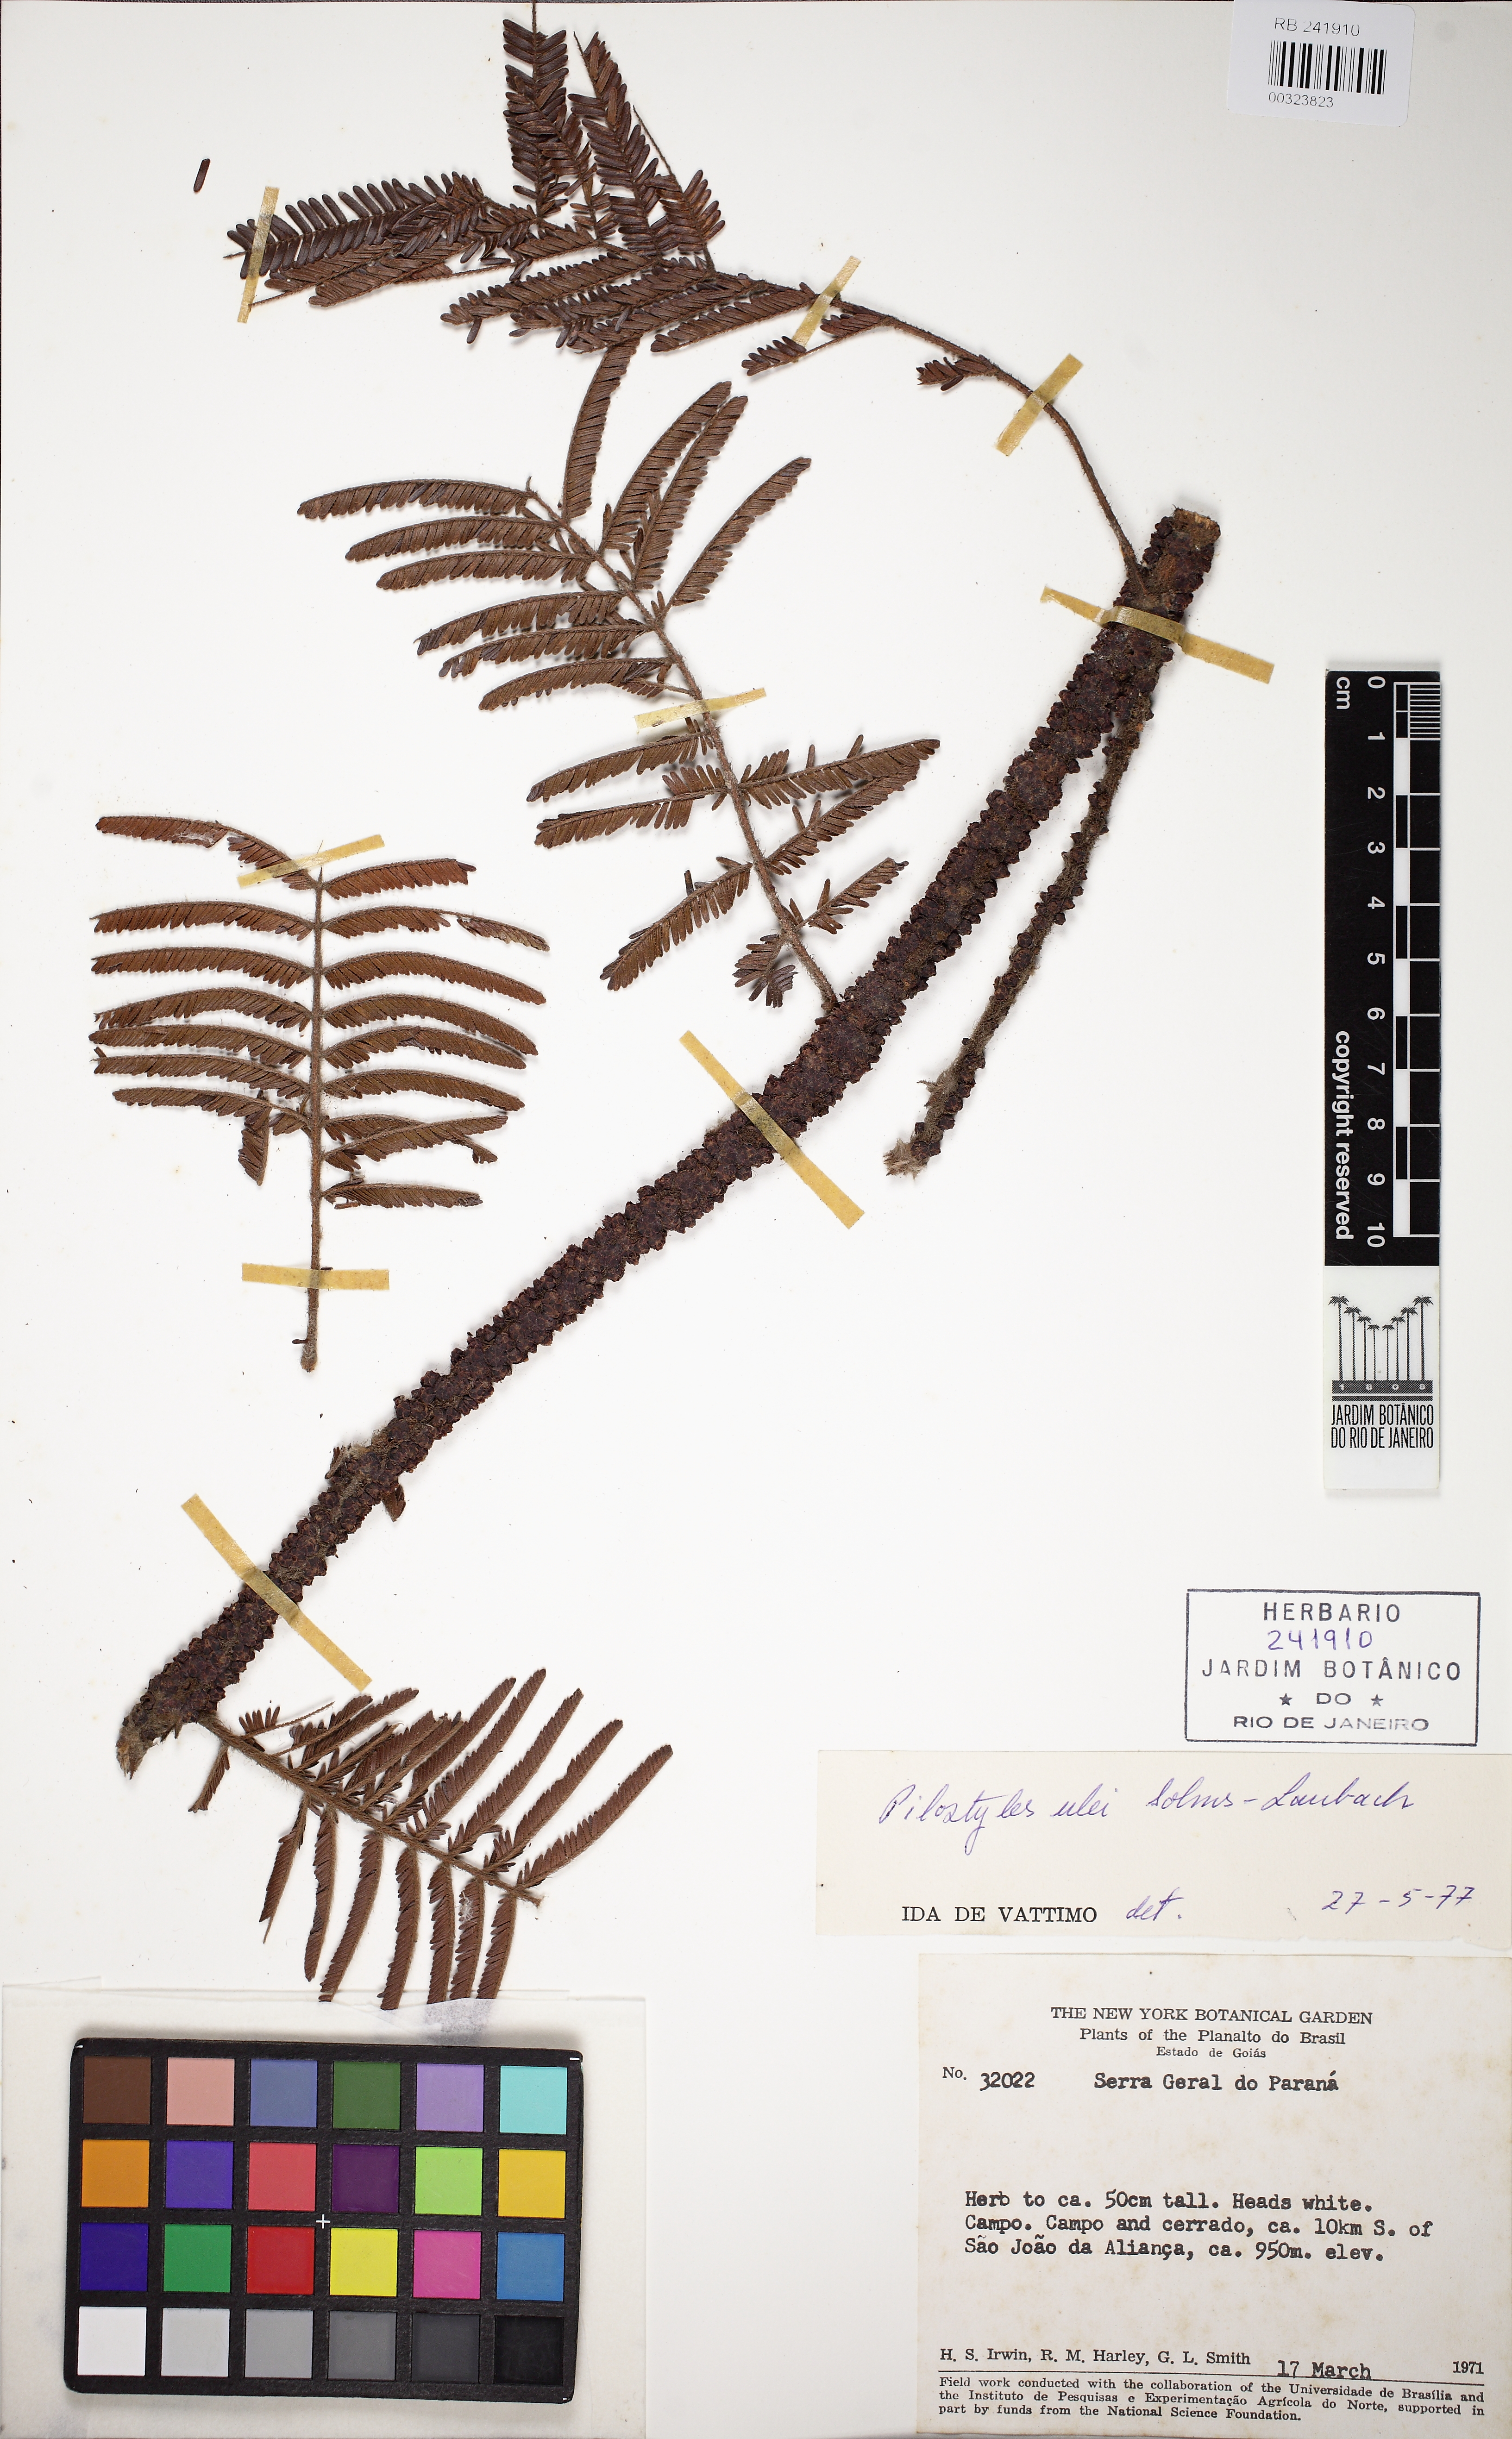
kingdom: Plantae
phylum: Tracheophyta
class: Magnoliopsida
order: Cucurbitales
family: Apodanthaceae
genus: Pilostyles
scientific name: Pilostyles blanchetii
